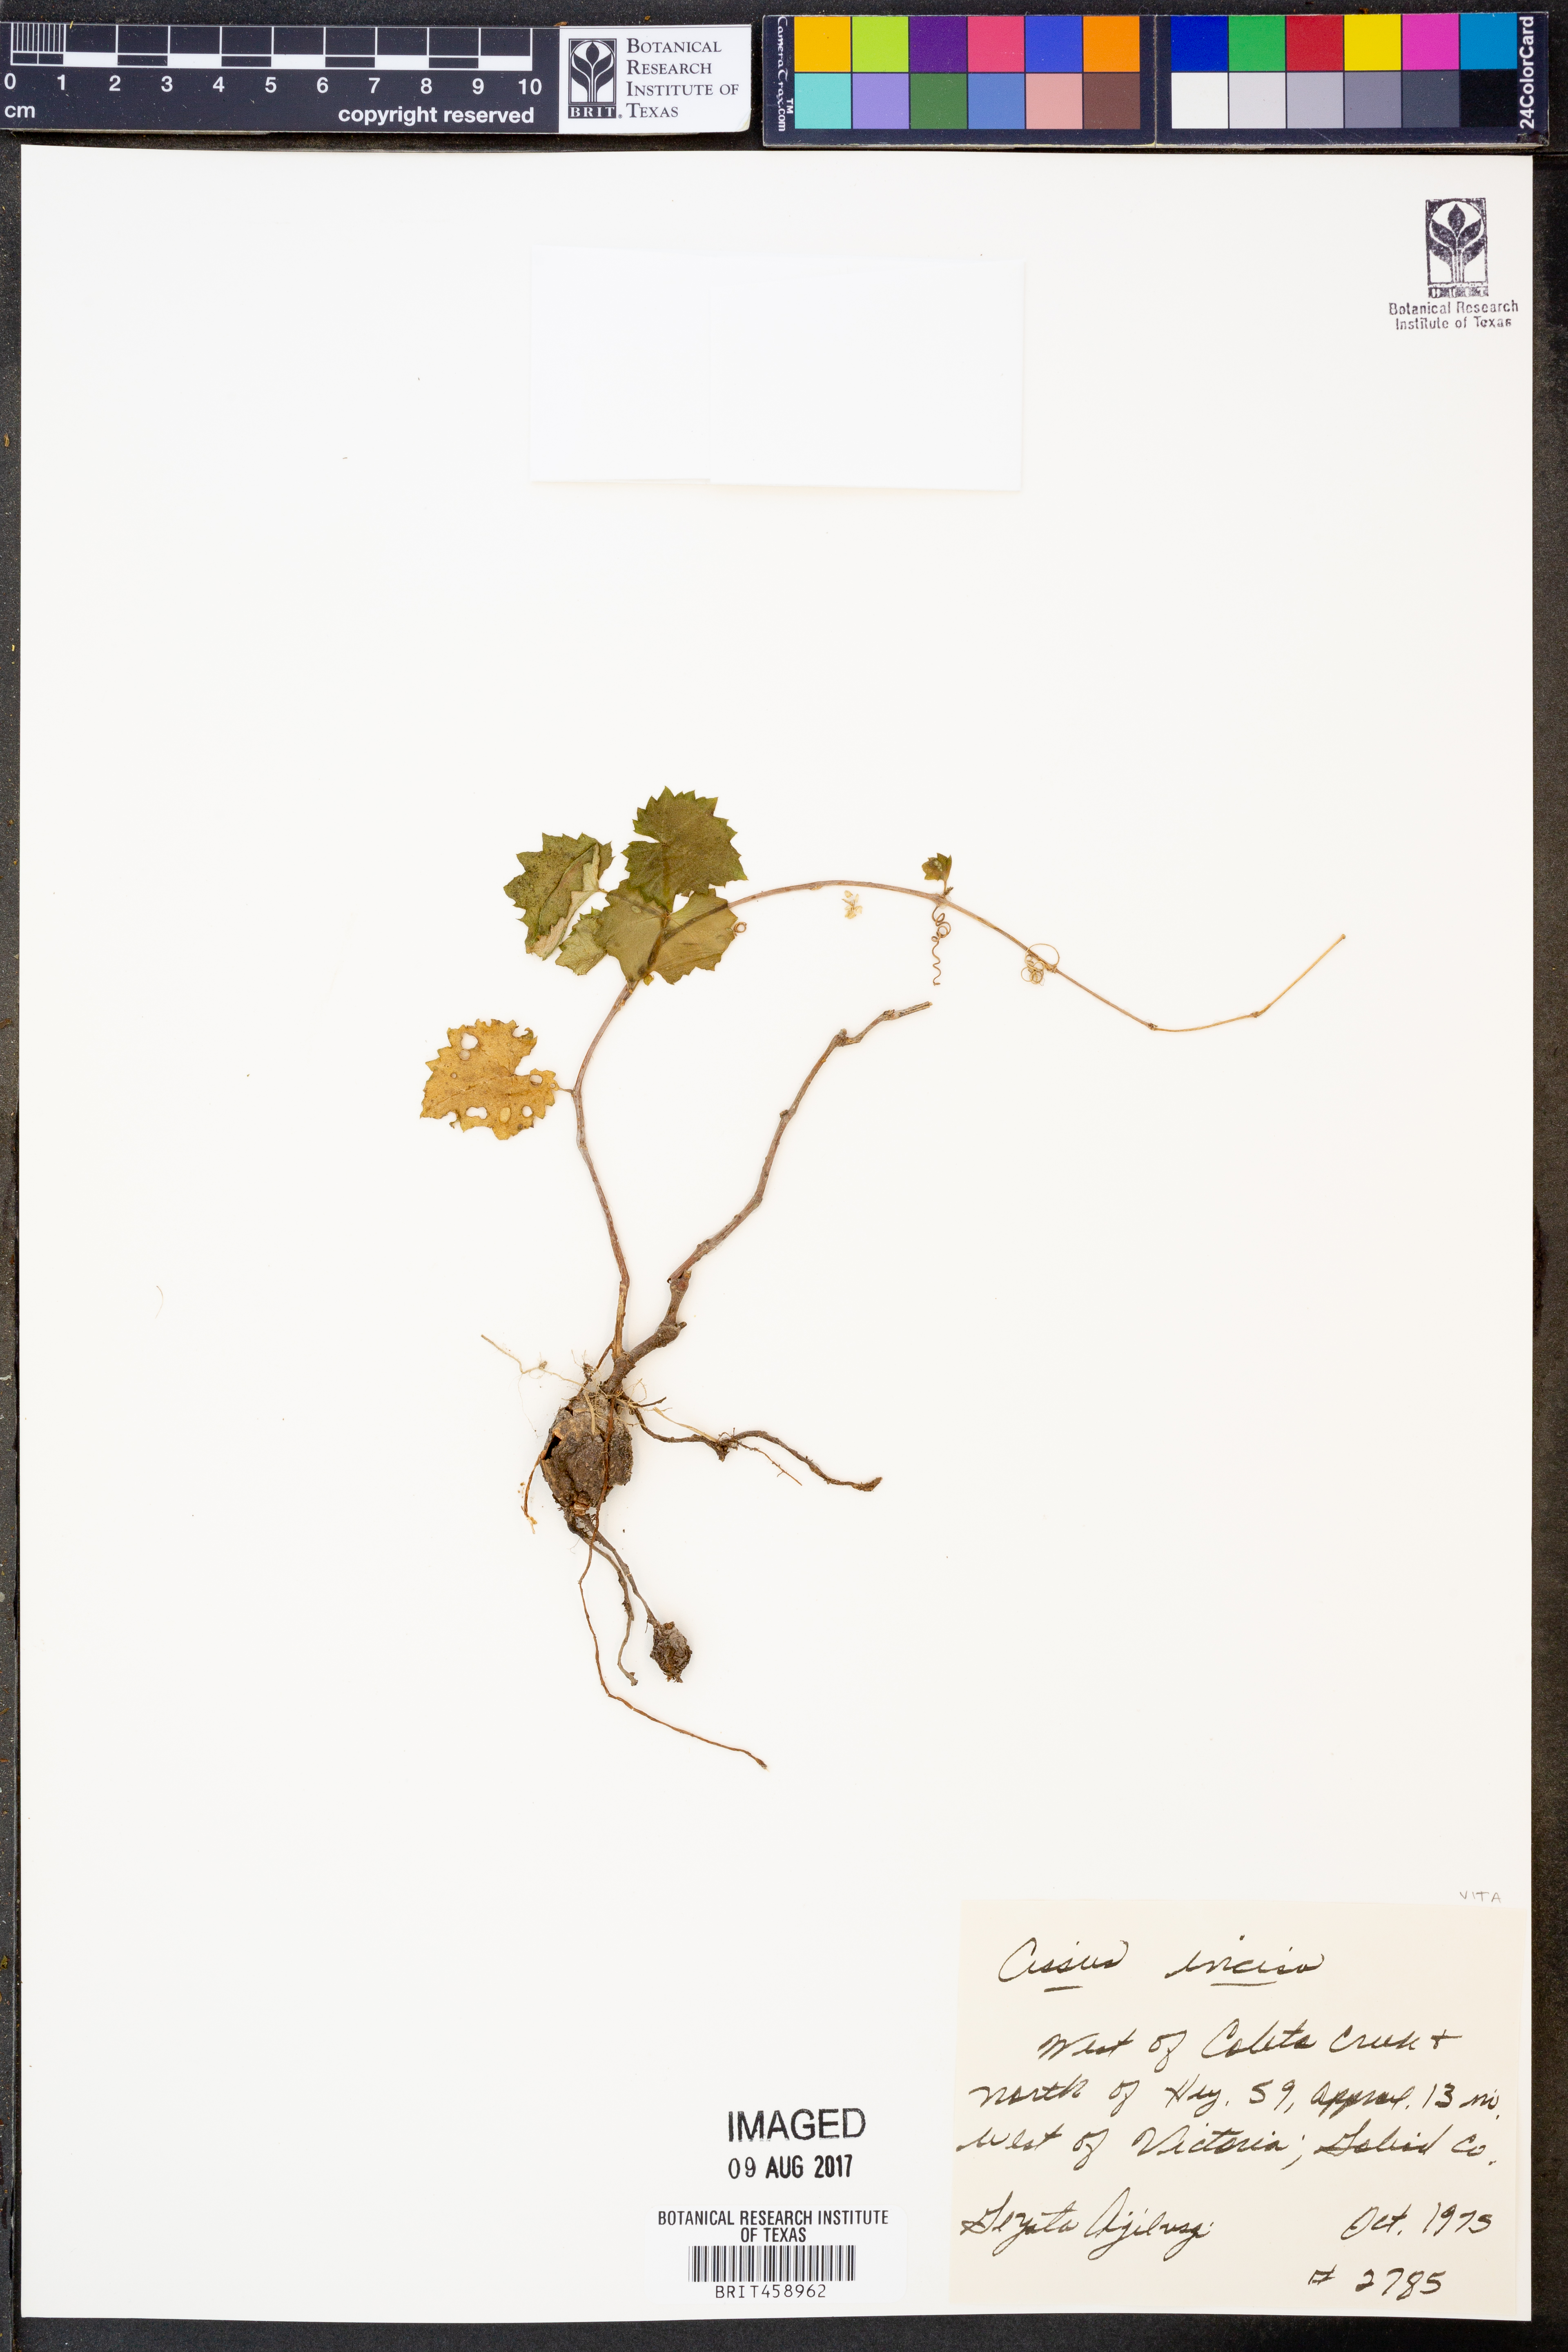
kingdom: Plantae
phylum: Tracheophyta
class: Magnoliopsida
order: Vitales
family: Vitaceae
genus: Cissus
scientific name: Cissus trifoliata
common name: Vine-sorrel
